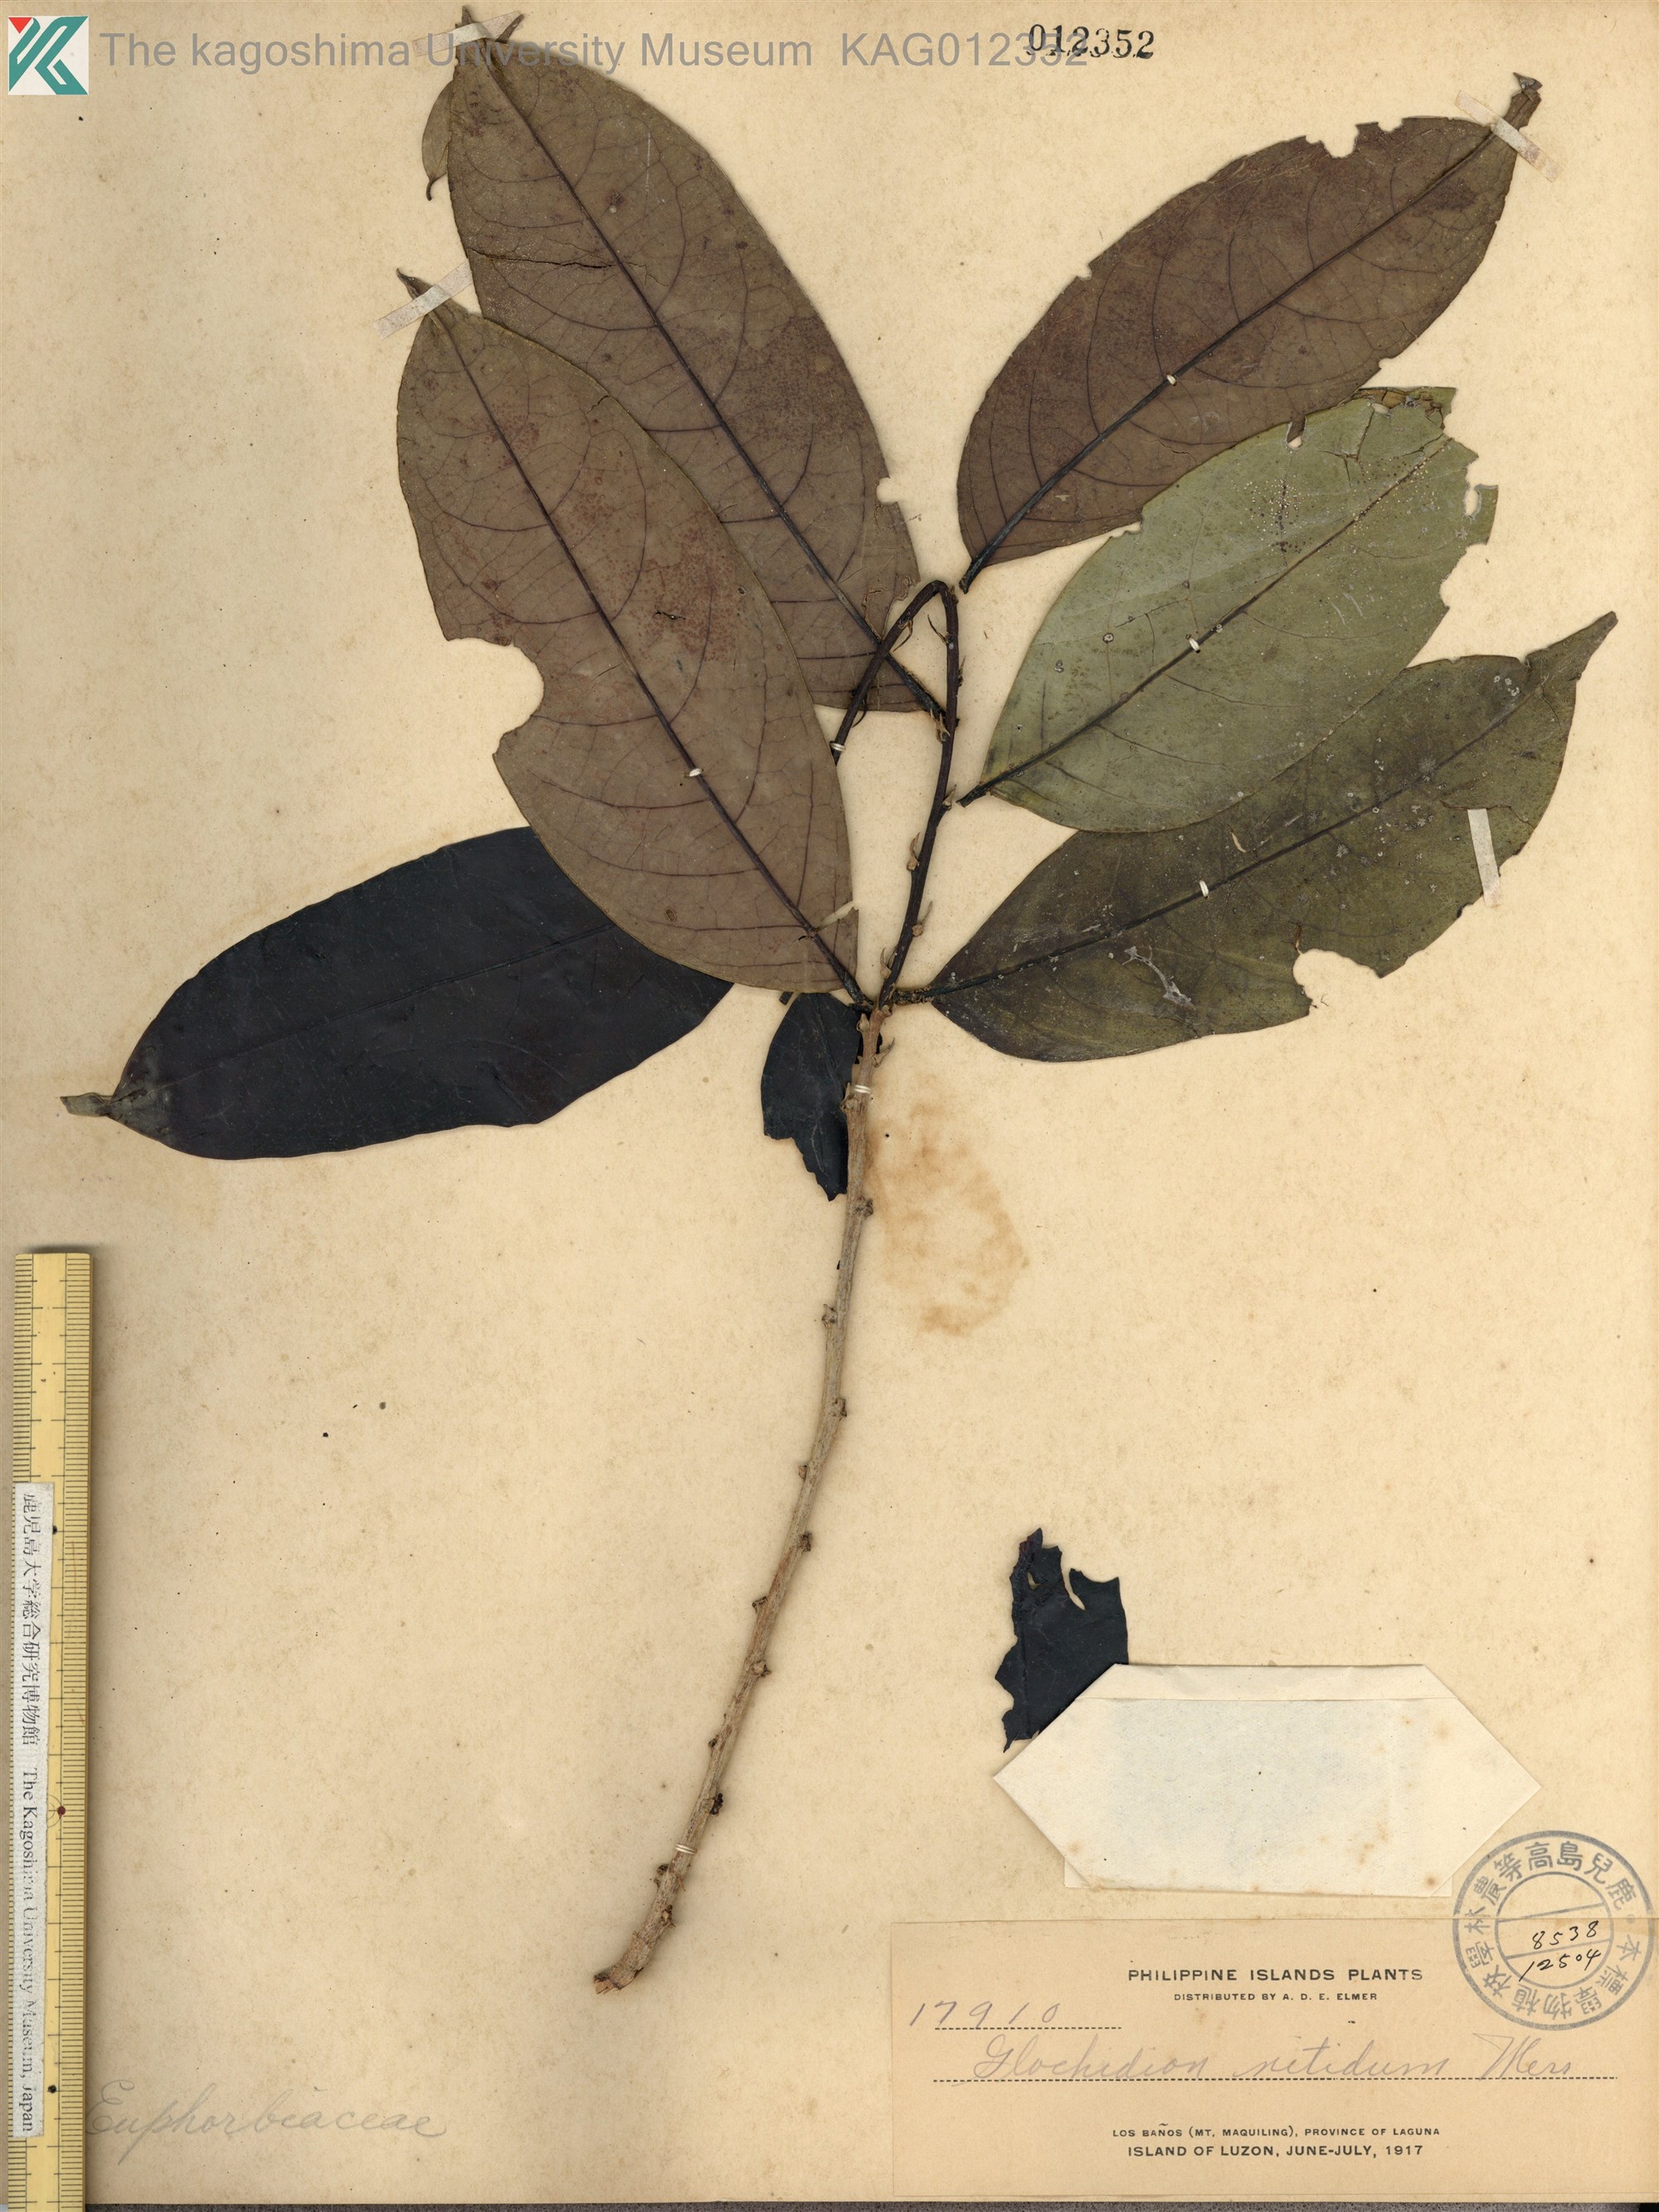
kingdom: Plantae
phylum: Tracheophyta
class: Magnoliopsida
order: Malpighiales
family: Phyllanthaceae
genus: Glochidion
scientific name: Glochidion subfalcatum
